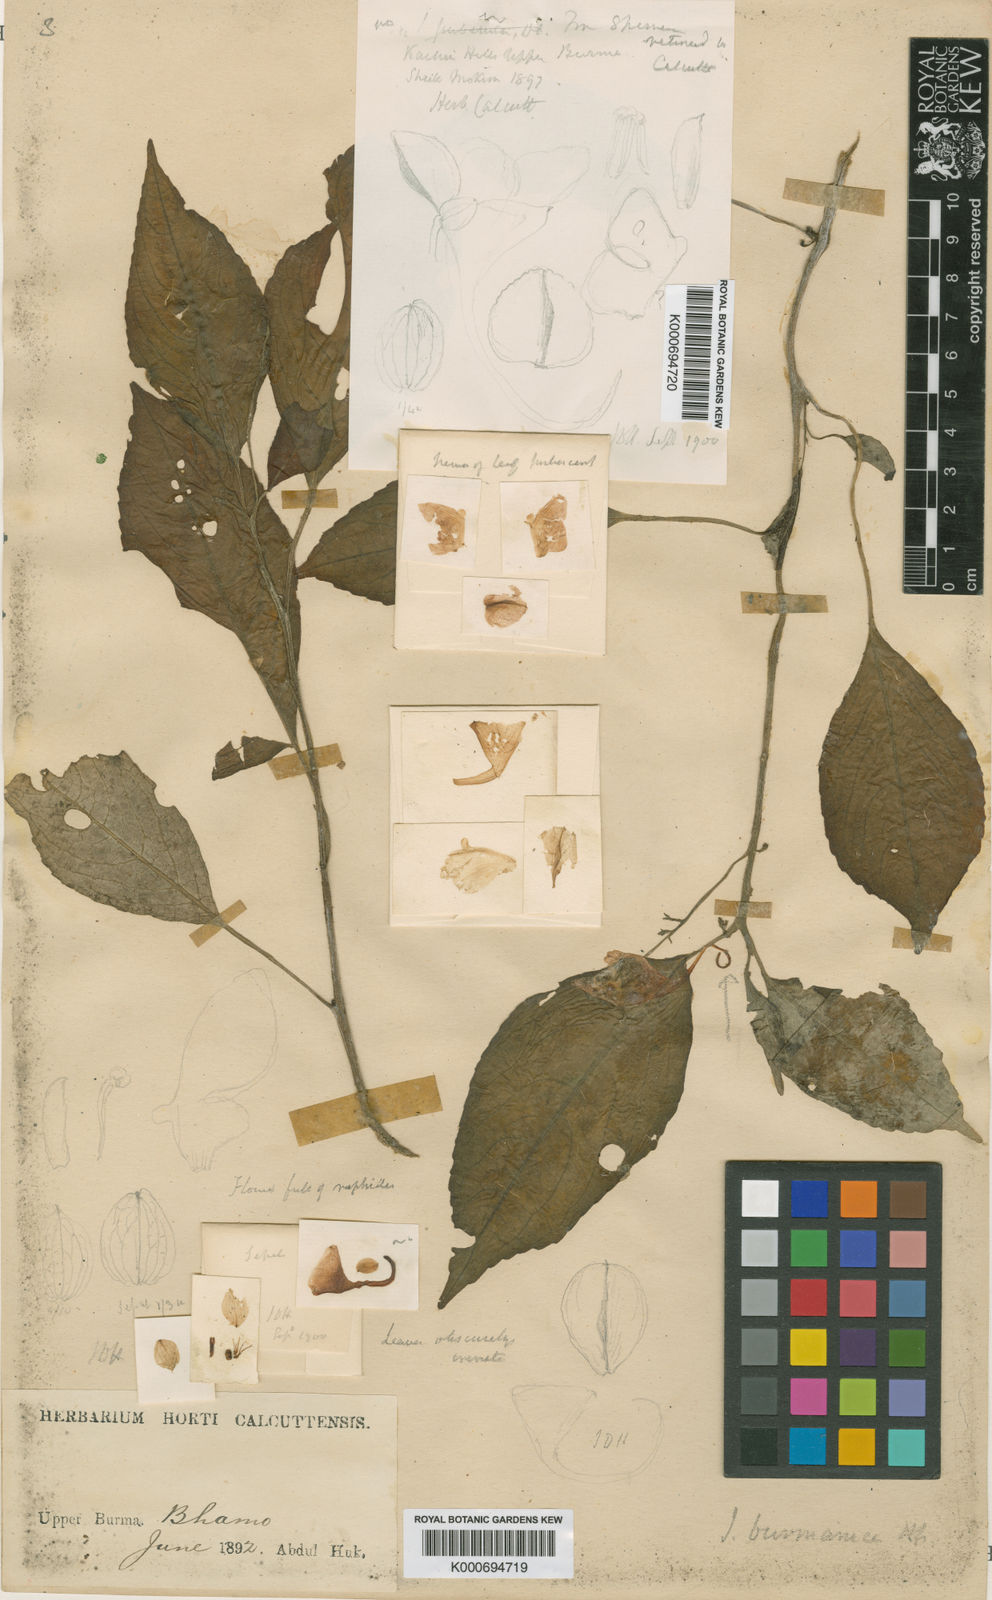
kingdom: Plantae
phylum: Tracheophyta
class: Magnoliopsida
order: Ericales
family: Balsaminaceae
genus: Impatiens
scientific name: Impatiens pulchra
